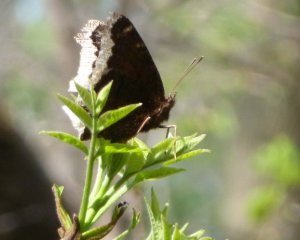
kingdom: Animalia
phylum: Arthropoda
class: Insecta
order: Lepidoptera
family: Nymphalidae
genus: Nymphalis
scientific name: Nymphalis antiopa
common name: Mourning Cloak
